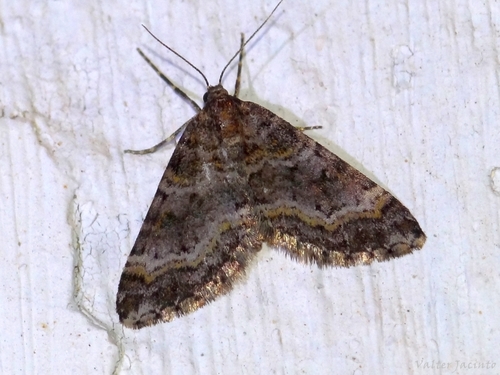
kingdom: Animalia
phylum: Arthropoda
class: Insecta
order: Lepidoptera
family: Geometridae
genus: Hospitalia
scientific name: Hospitalia flavolineata
